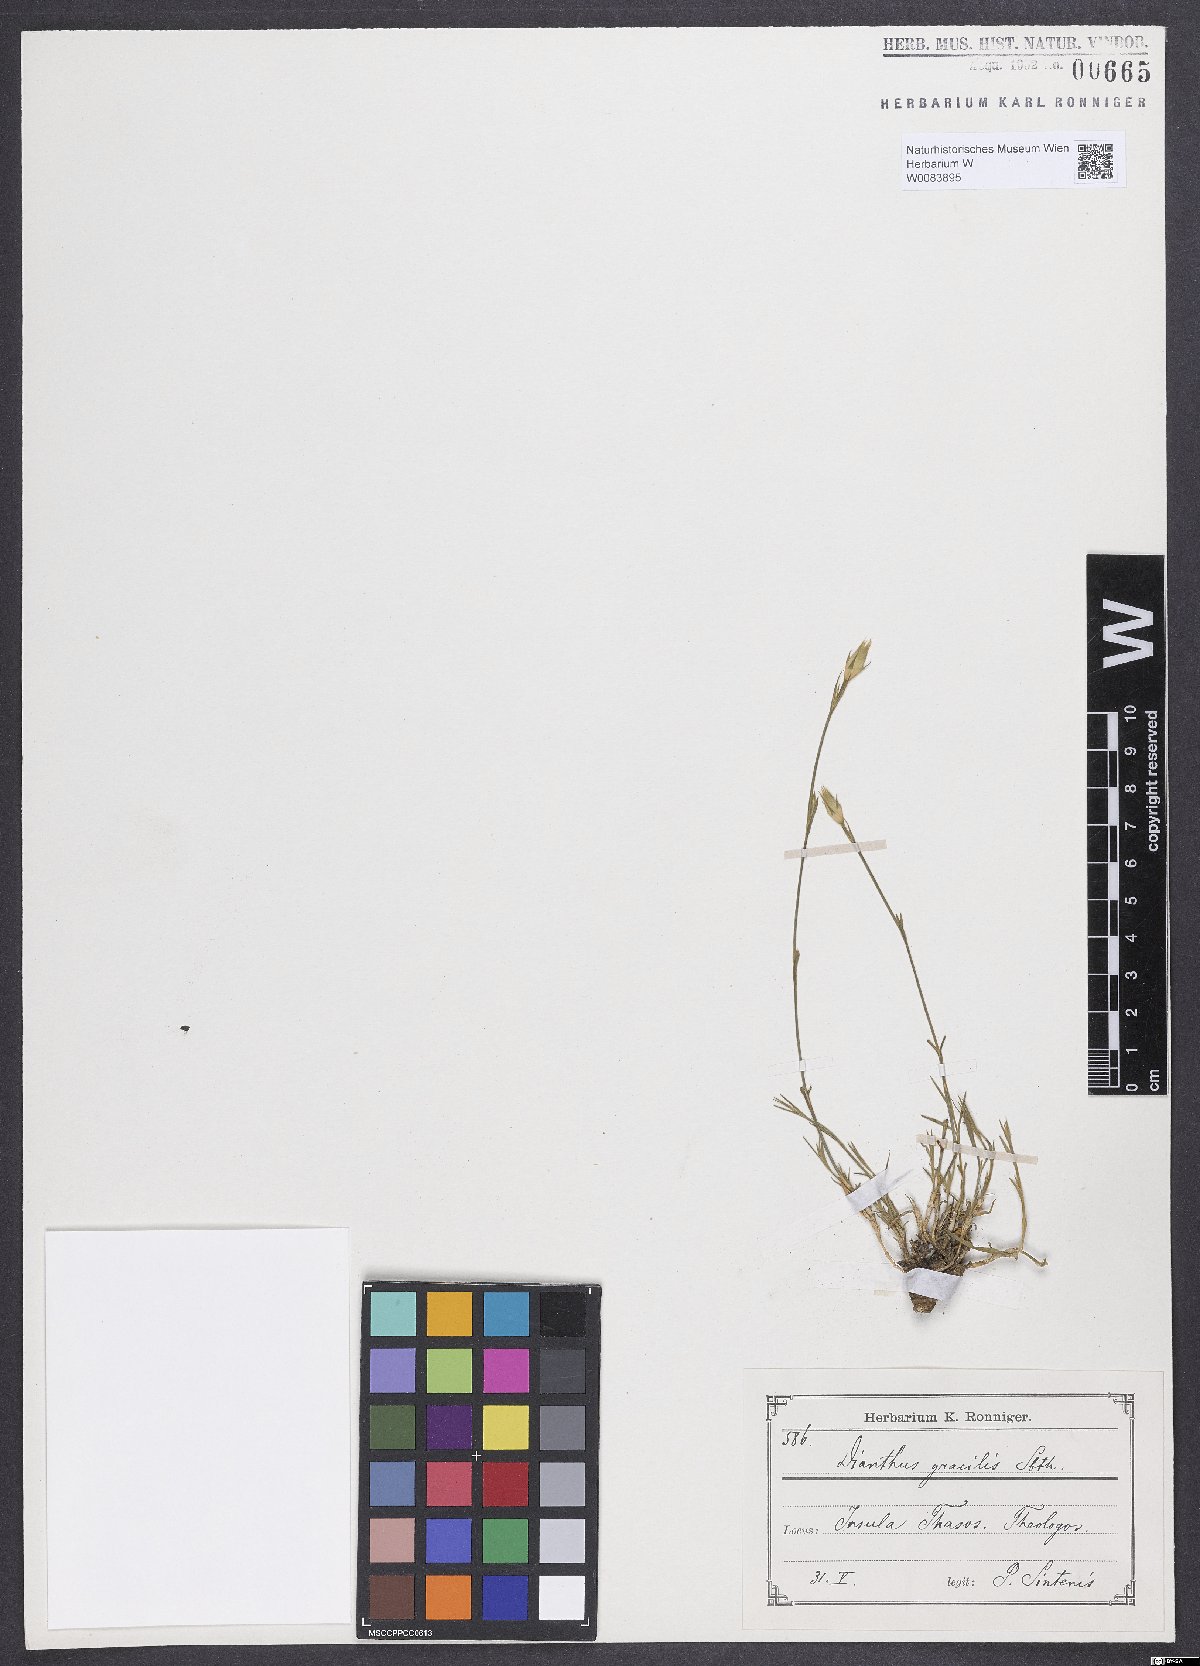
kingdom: Plantae
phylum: Tracheophyta
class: Magnoliopsida
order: Caryophyllales
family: Caryophyllaceae
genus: Dianthus
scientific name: Dianthus gracilis
